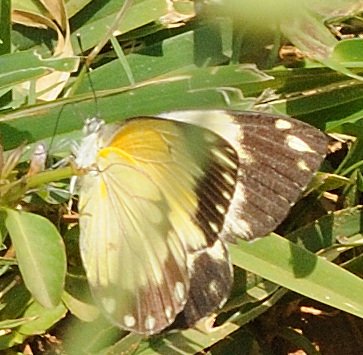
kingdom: Animalia
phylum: Arthropoda
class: Insecta
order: Lepidoptera
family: Pieridae
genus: Belenois
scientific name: Belenois creona
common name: African Caper
